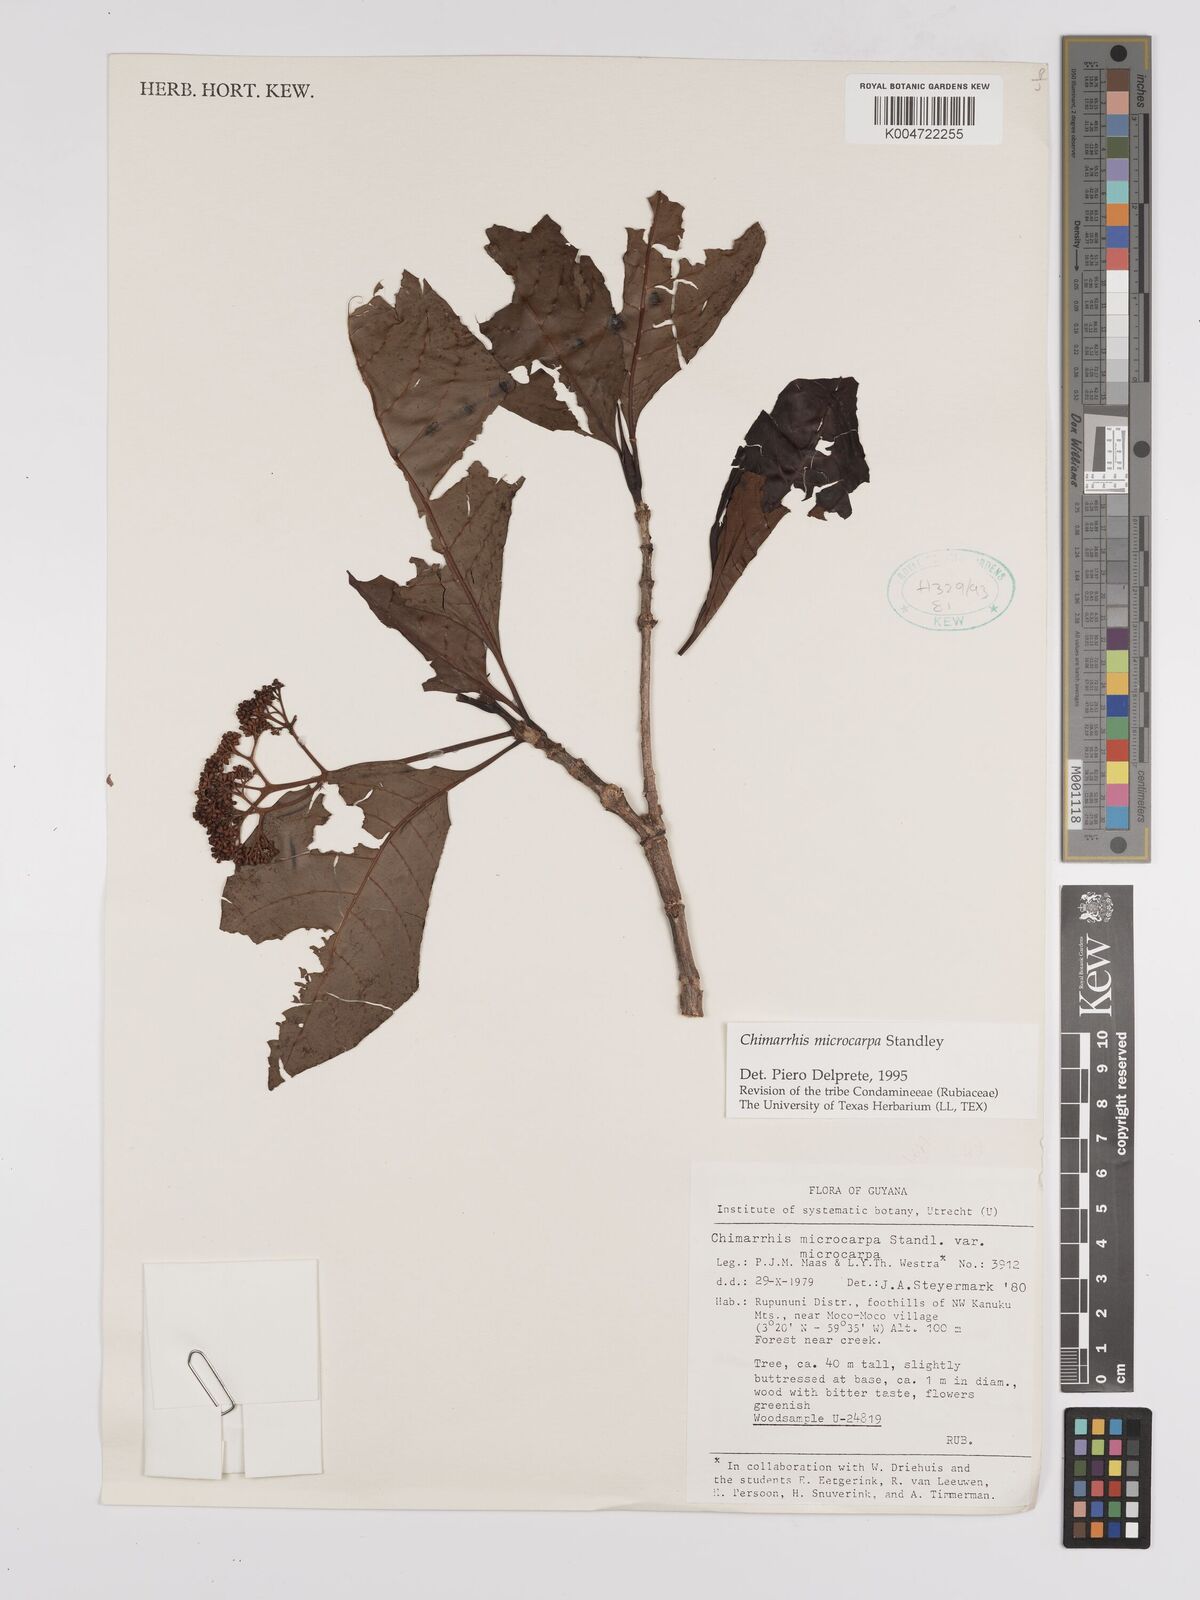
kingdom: Plantae
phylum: Tracheophyta
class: Magnoliopsida
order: Gentianales
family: Rubiaceae
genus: Chimarrhis
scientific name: Chimarrhis microcarpa
